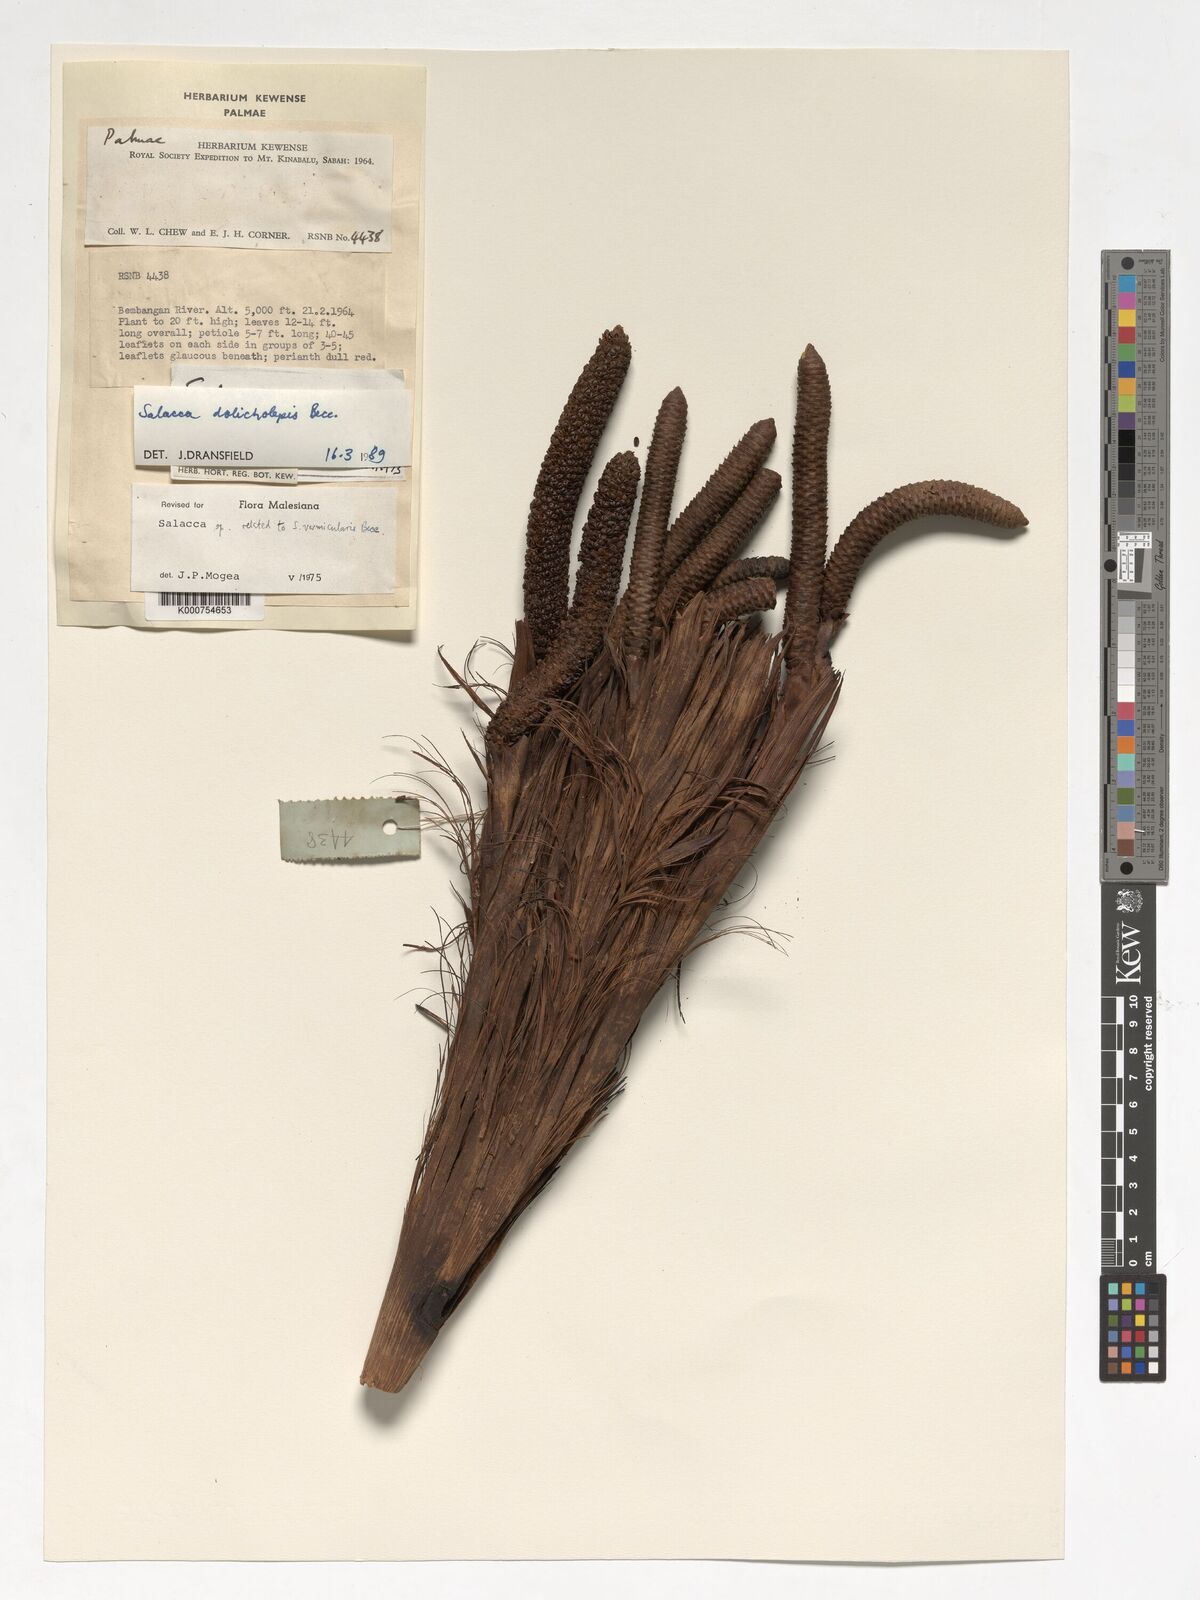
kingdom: Plantae
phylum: Tracheophyta
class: Liliopsida
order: Arecales
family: Arecaceae
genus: Salacca
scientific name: Salacca dolicholepis
